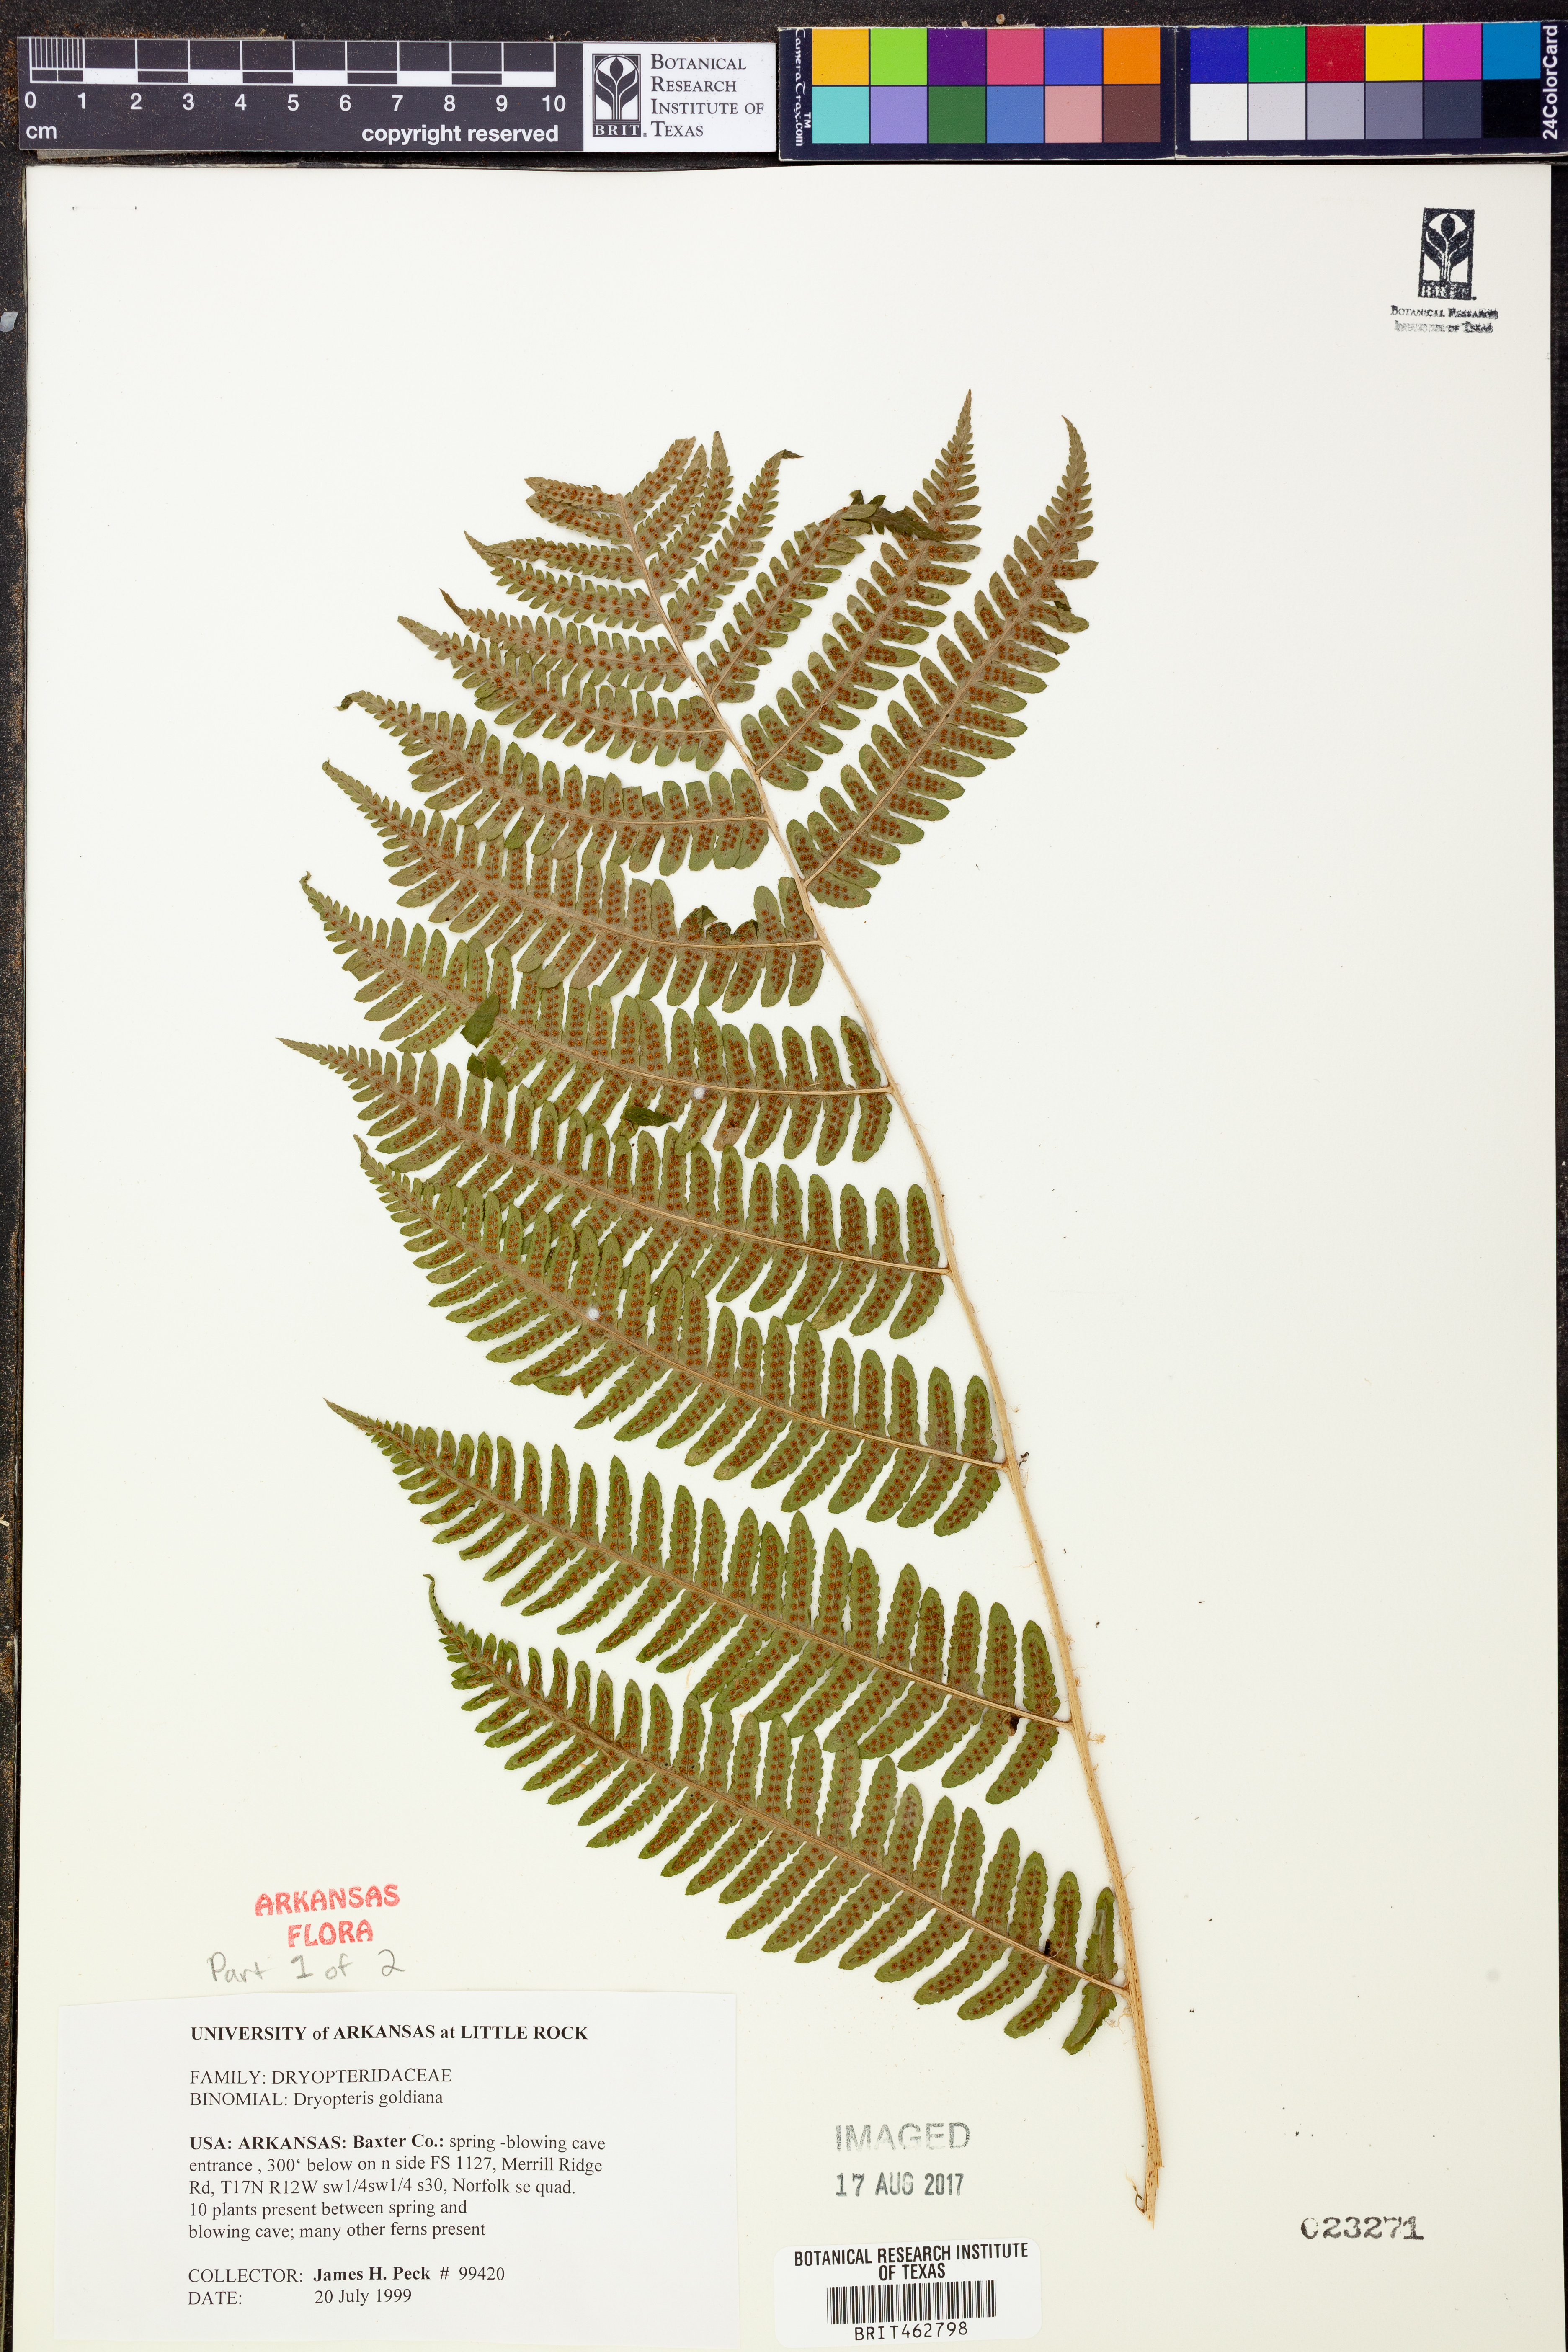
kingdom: Plantae
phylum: Tracheophyta
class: Polypodiopsida
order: Polypodiales
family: Dryopteridaceae
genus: Dryopteris
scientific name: Dryopteris goeldiana
